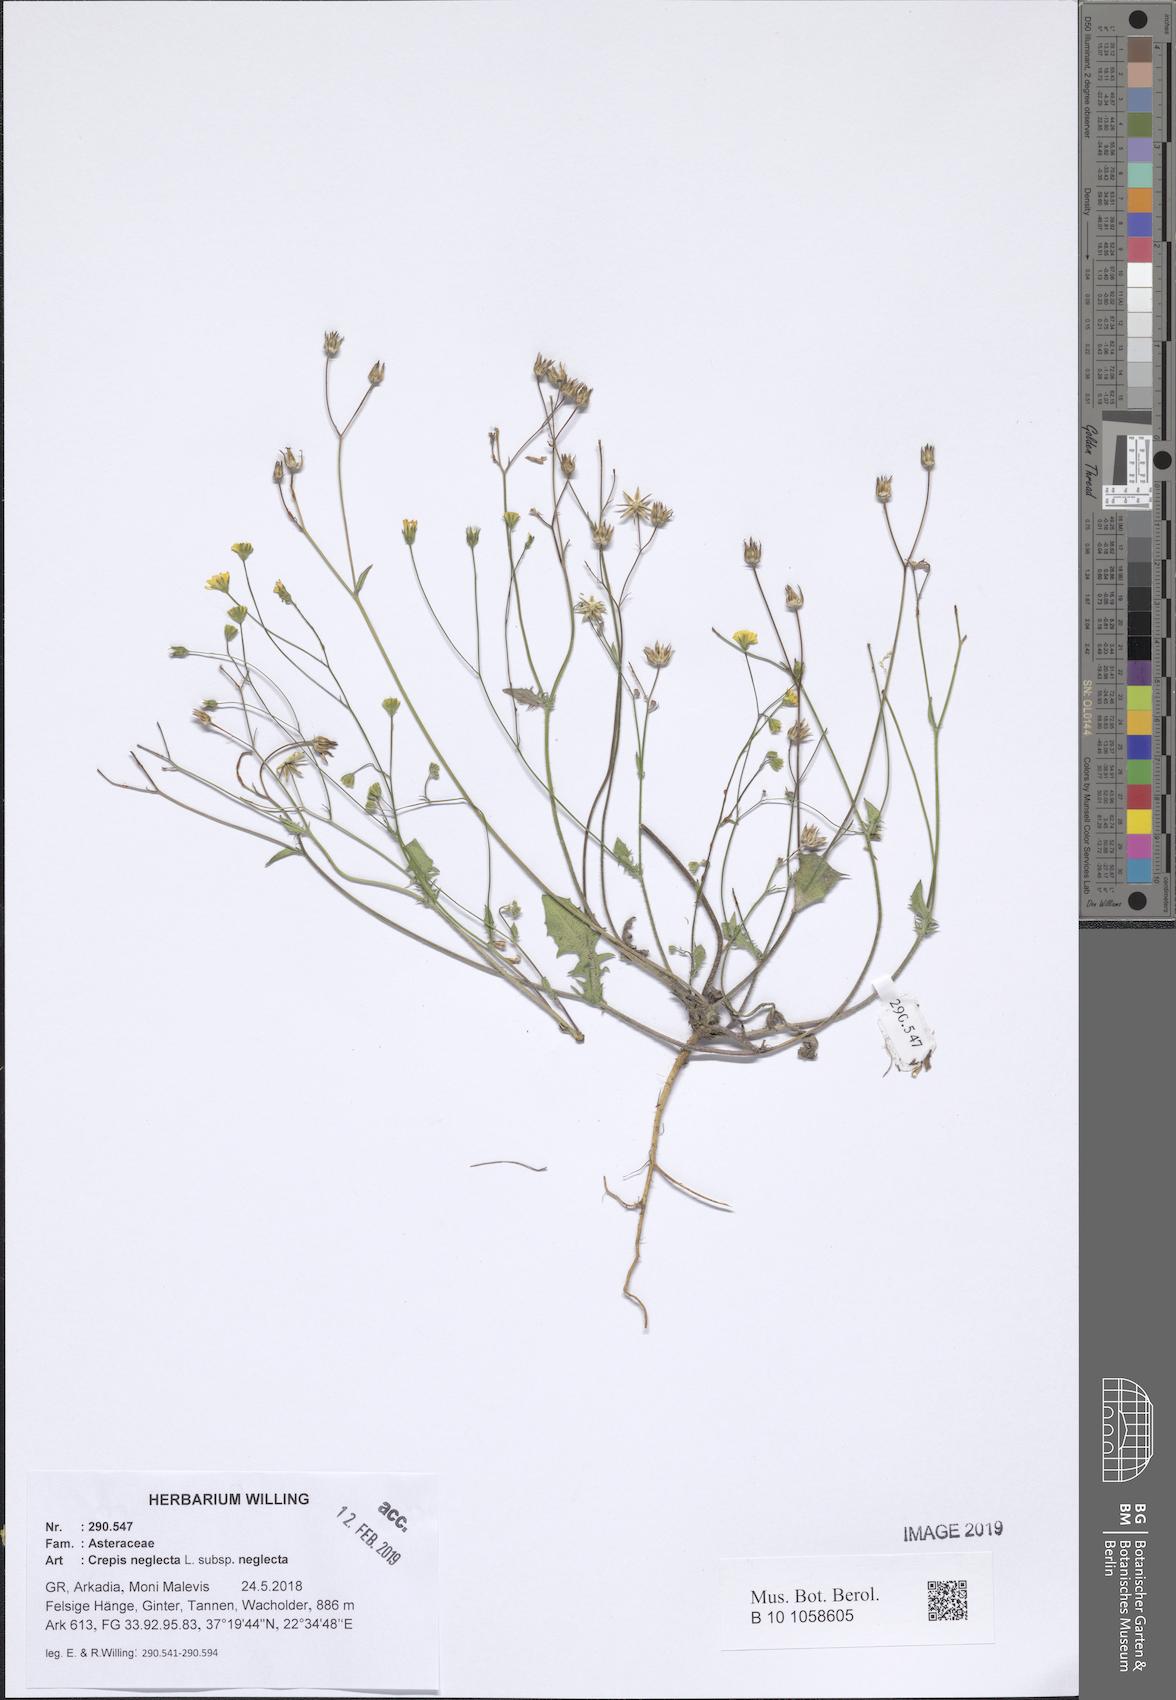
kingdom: Plantae
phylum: Tracheophyta
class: Magnoliopsida
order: Asterales
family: Asteraceae
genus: Crepis
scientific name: Crepis neglecta
